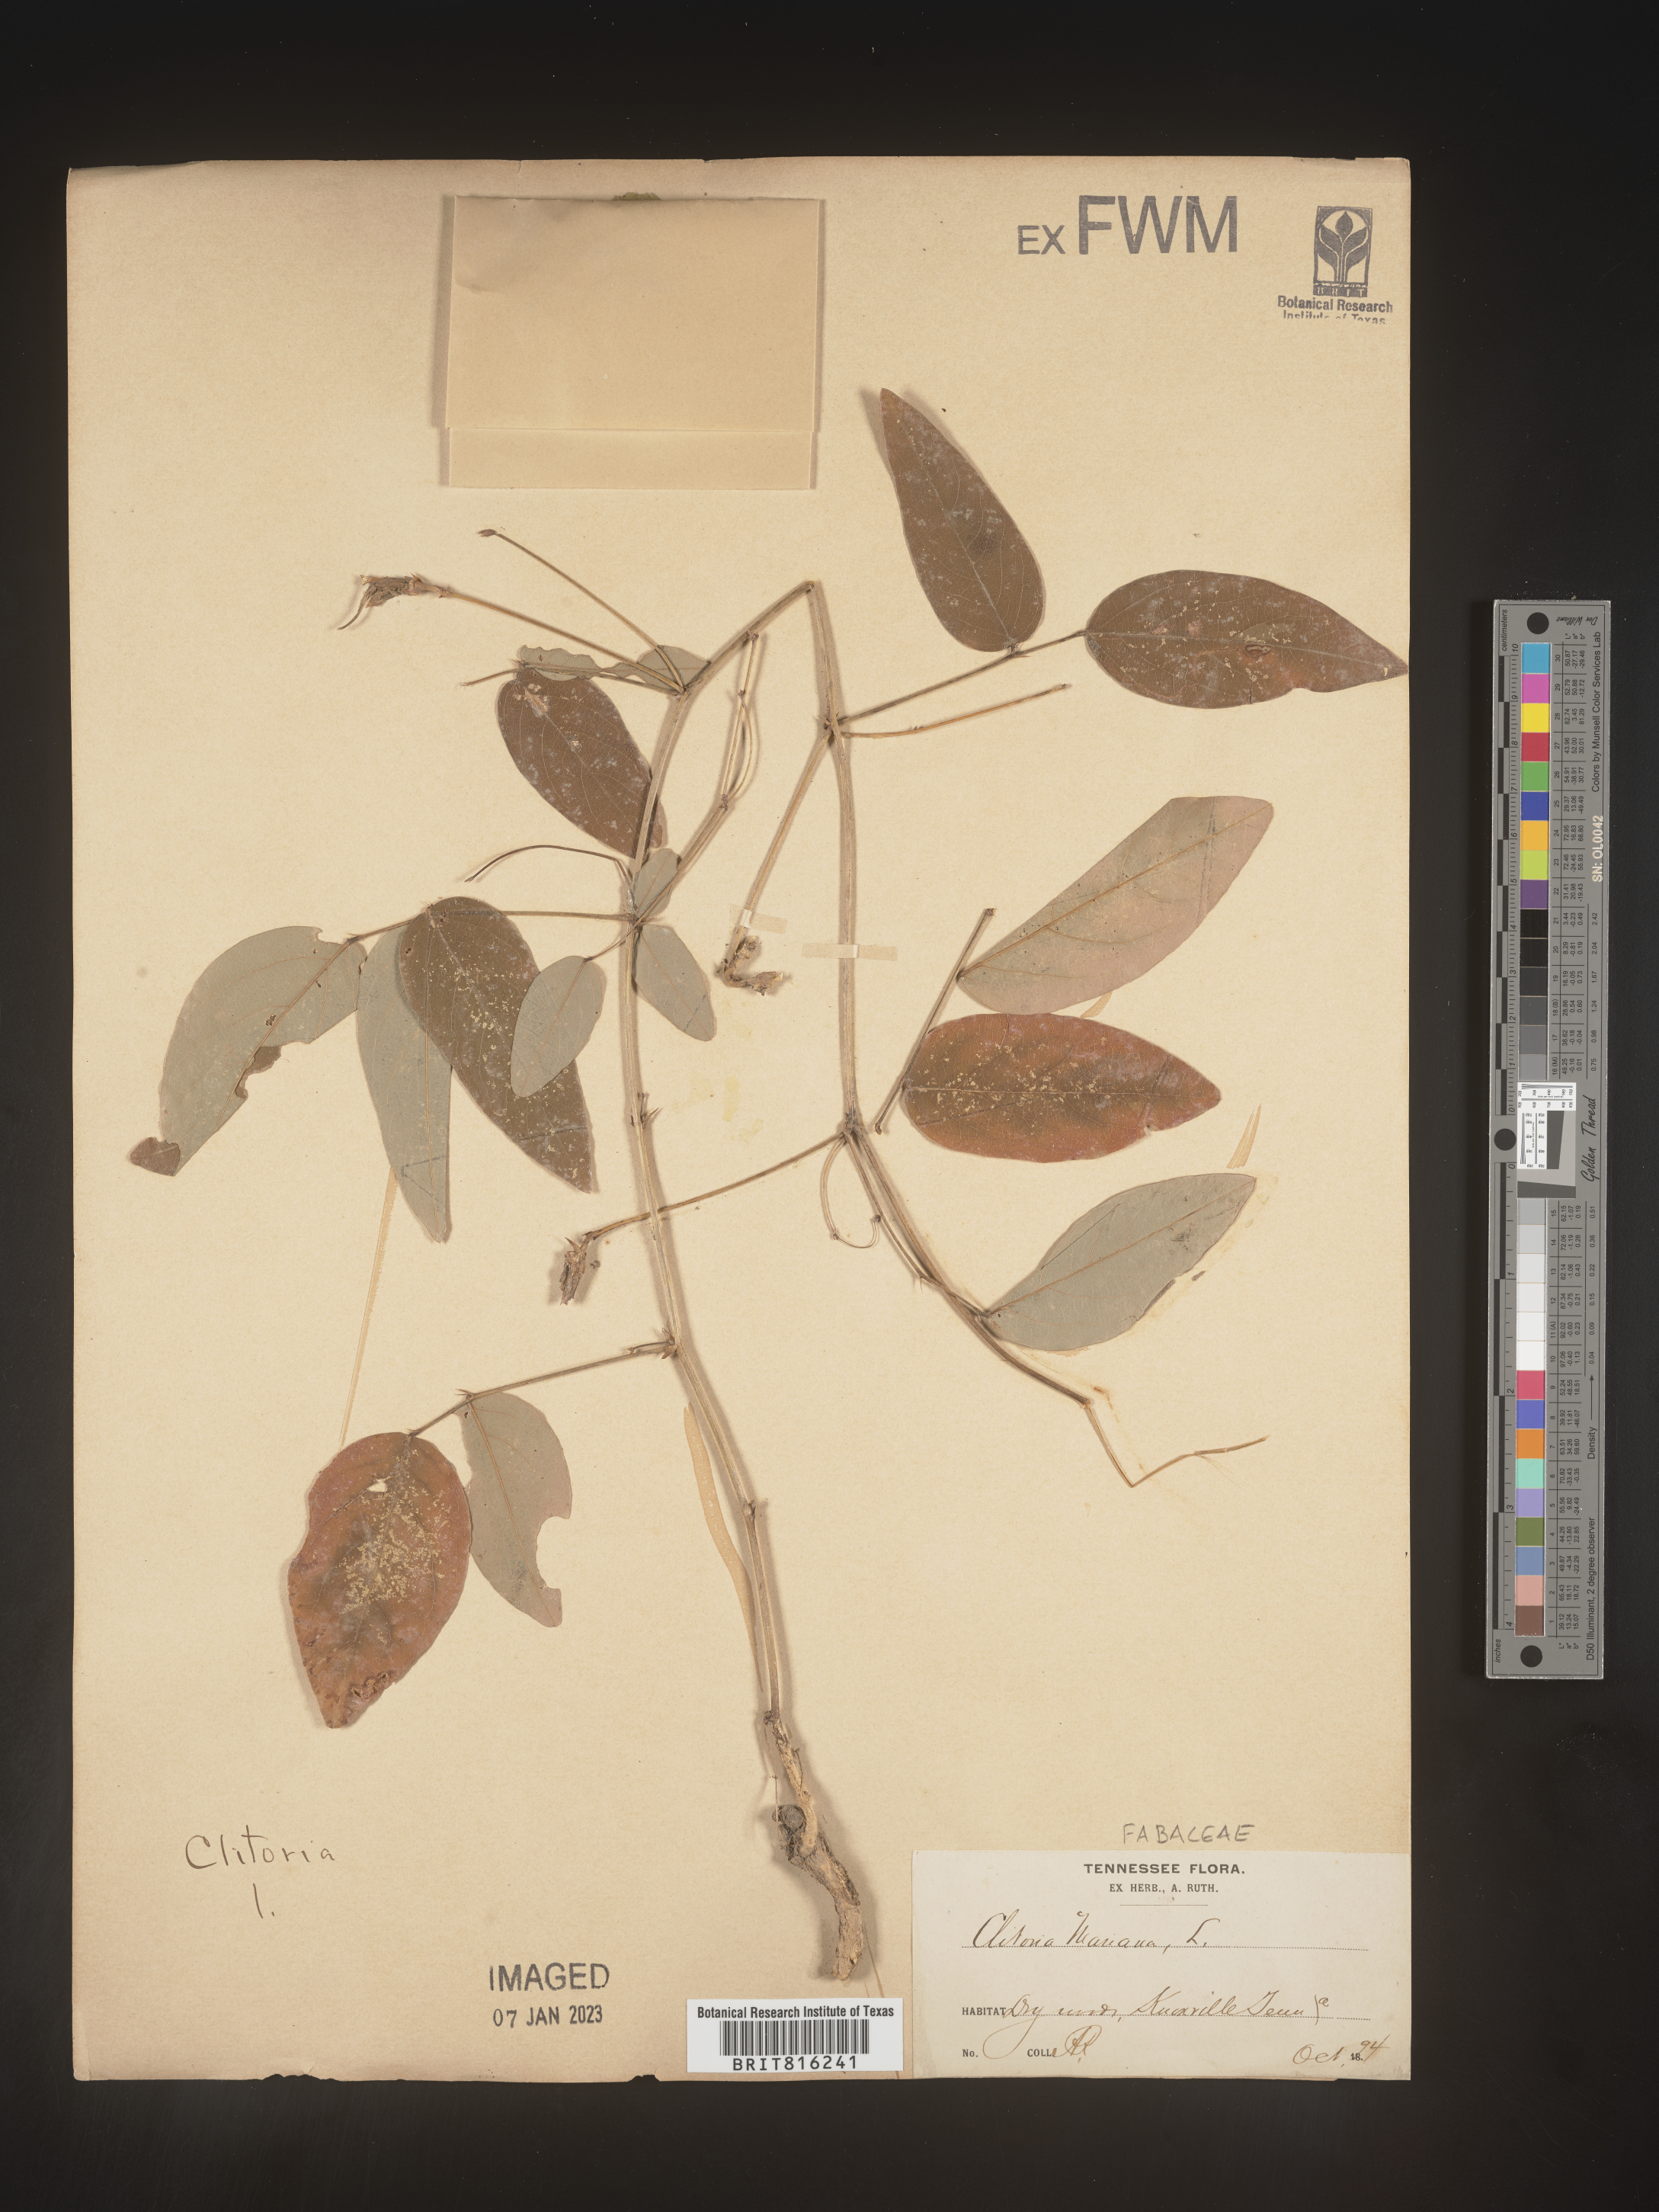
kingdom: Plantae
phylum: Tracheophyta
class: Magnoliopsida
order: Fabales
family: Fabaceae
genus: Clitoria
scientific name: Clitoria mariana
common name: Butterfly-pea
